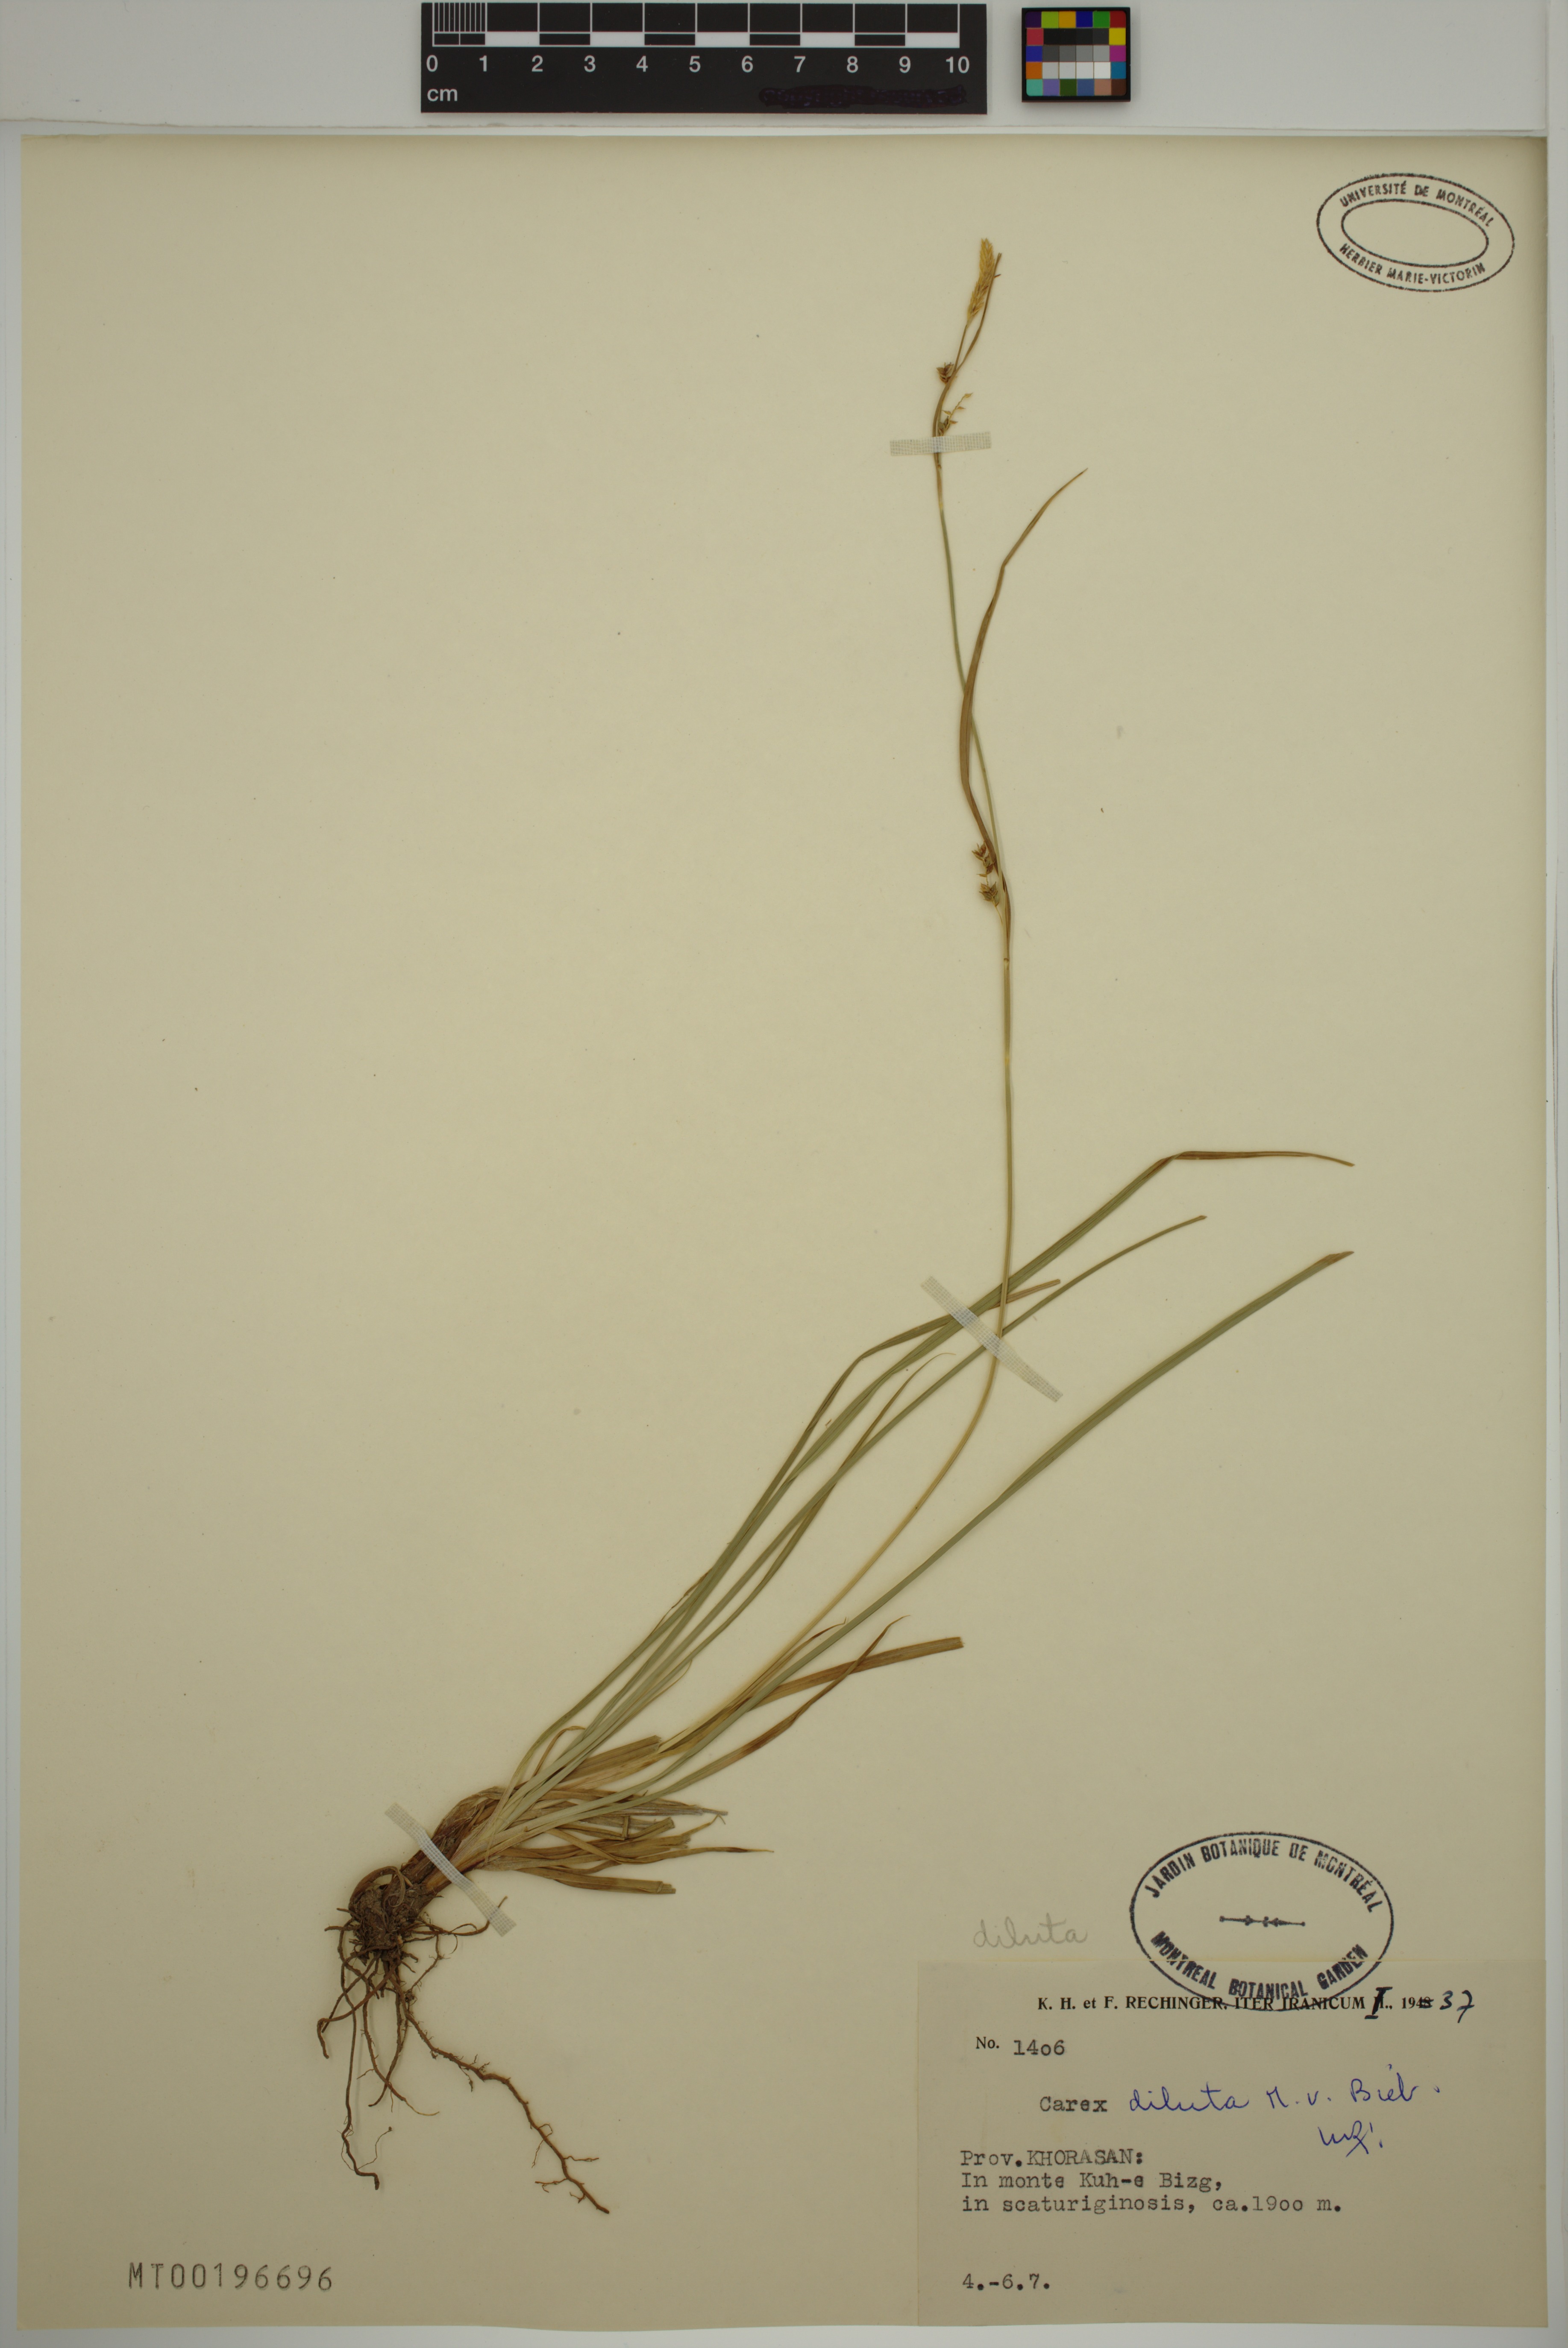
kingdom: Plantae
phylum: Tracheophyta
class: Liliopsida
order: Poales
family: Cyperaceae
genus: Carex
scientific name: Carex diluta
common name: Sedge
